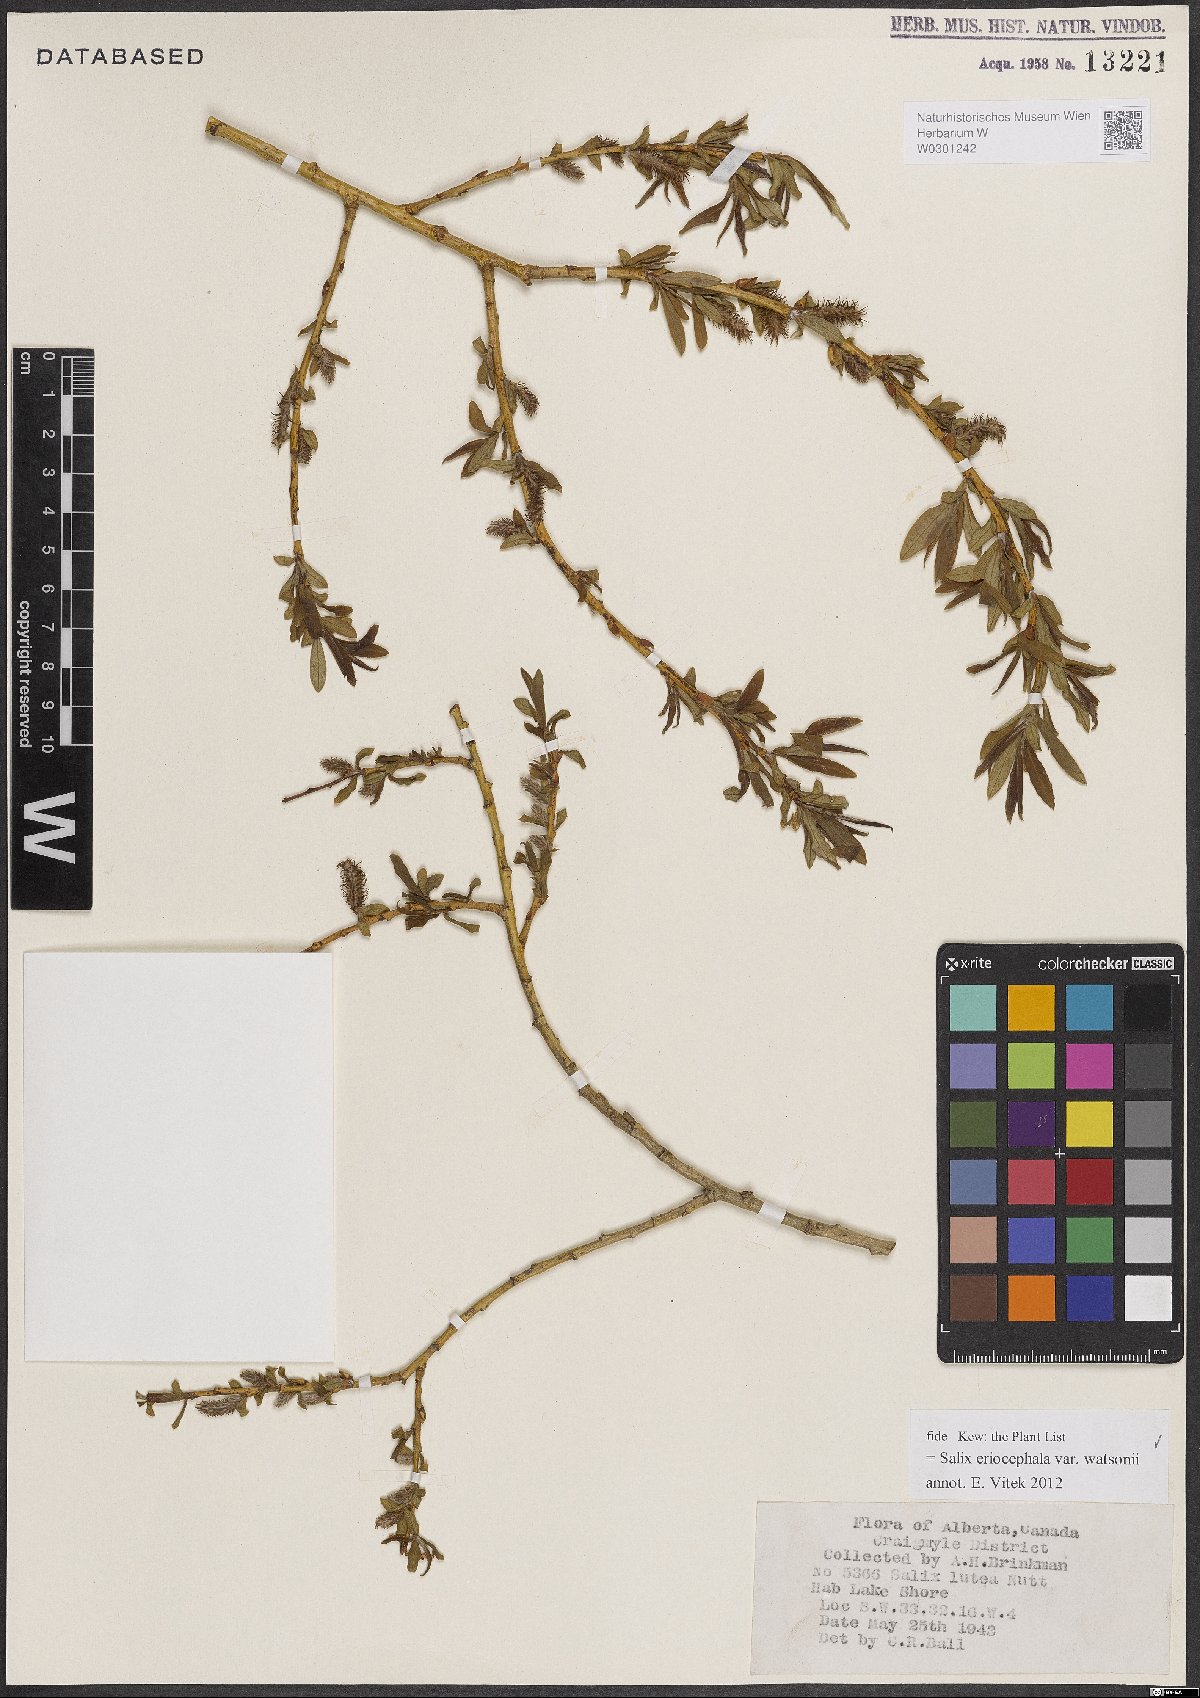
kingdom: Plantae
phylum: Tracheophyta
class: Magnoliopsida
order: Malpighiales
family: Salicaceae
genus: Salix
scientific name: Salix lutea
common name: Yellow willow
